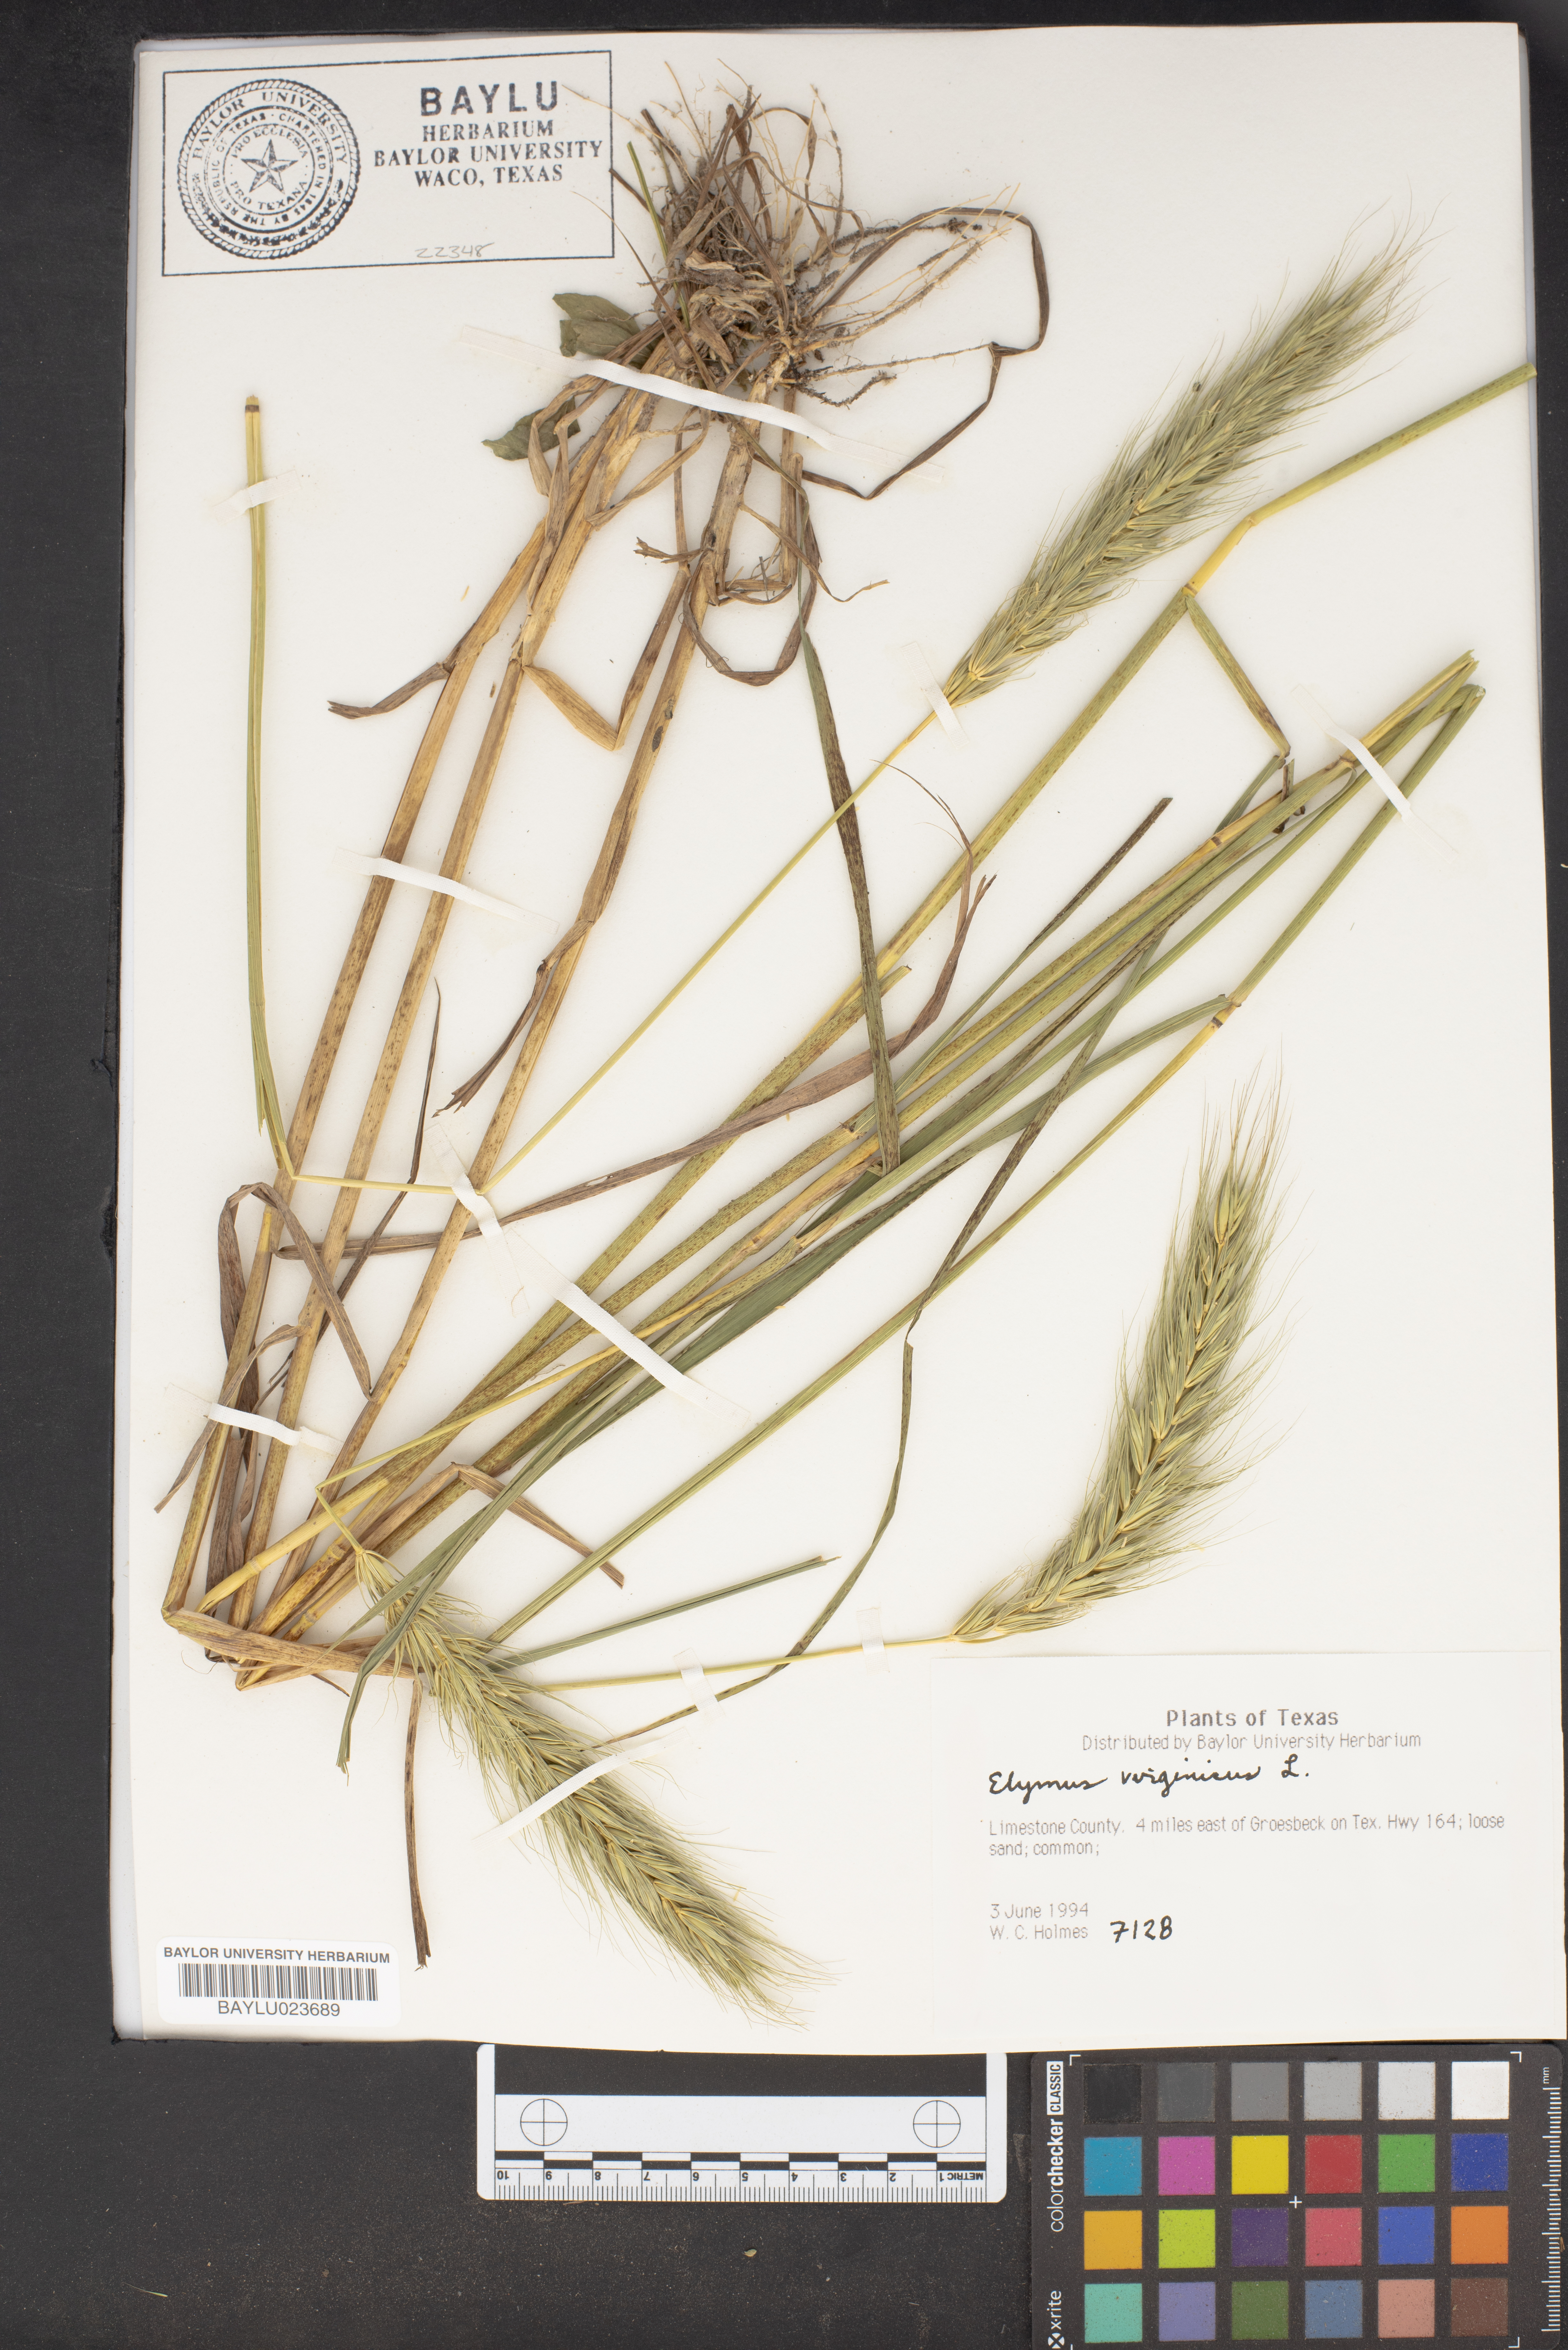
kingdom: Plantae
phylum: Tracheophyta
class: Liliopsida
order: Poales
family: Poaceae
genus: Elymus
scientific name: Elymus virginicus
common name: Common eastern wildrye
